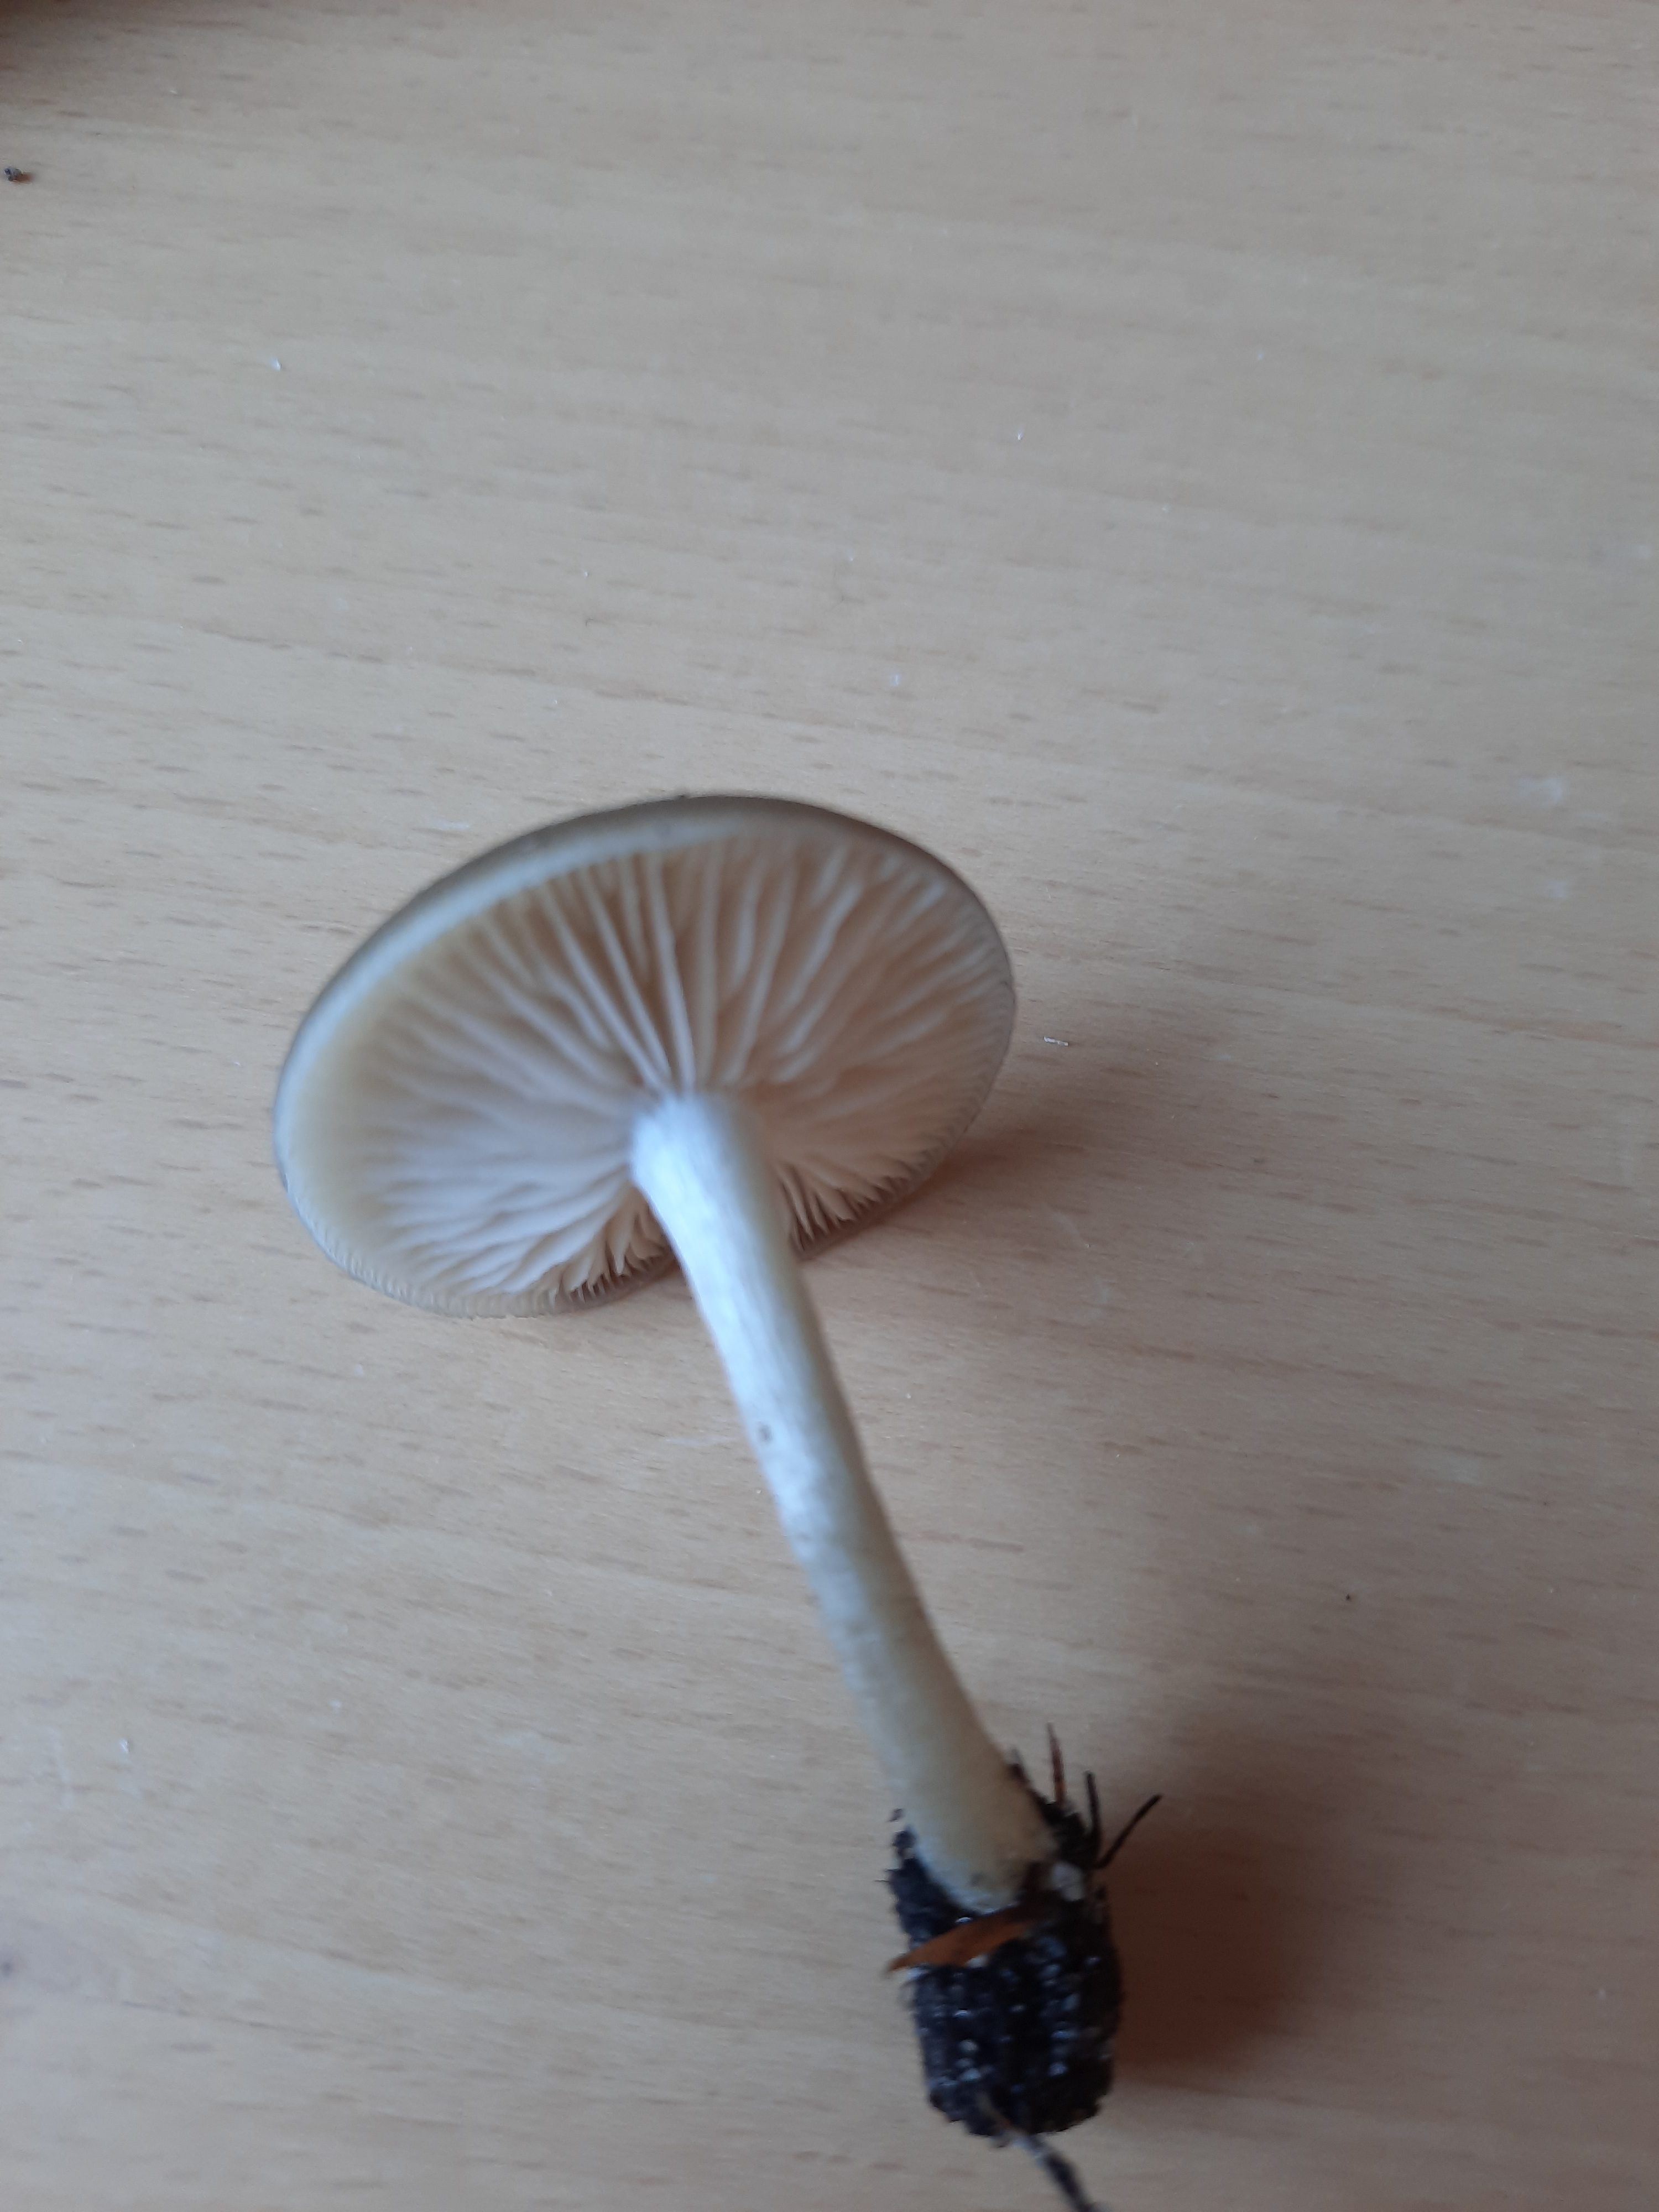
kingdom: Fungi
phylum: Basidiomycota
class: Agaricomycetes
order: Agaricales
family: Entolomataceae
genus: Entoloma
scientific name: Entoloma
